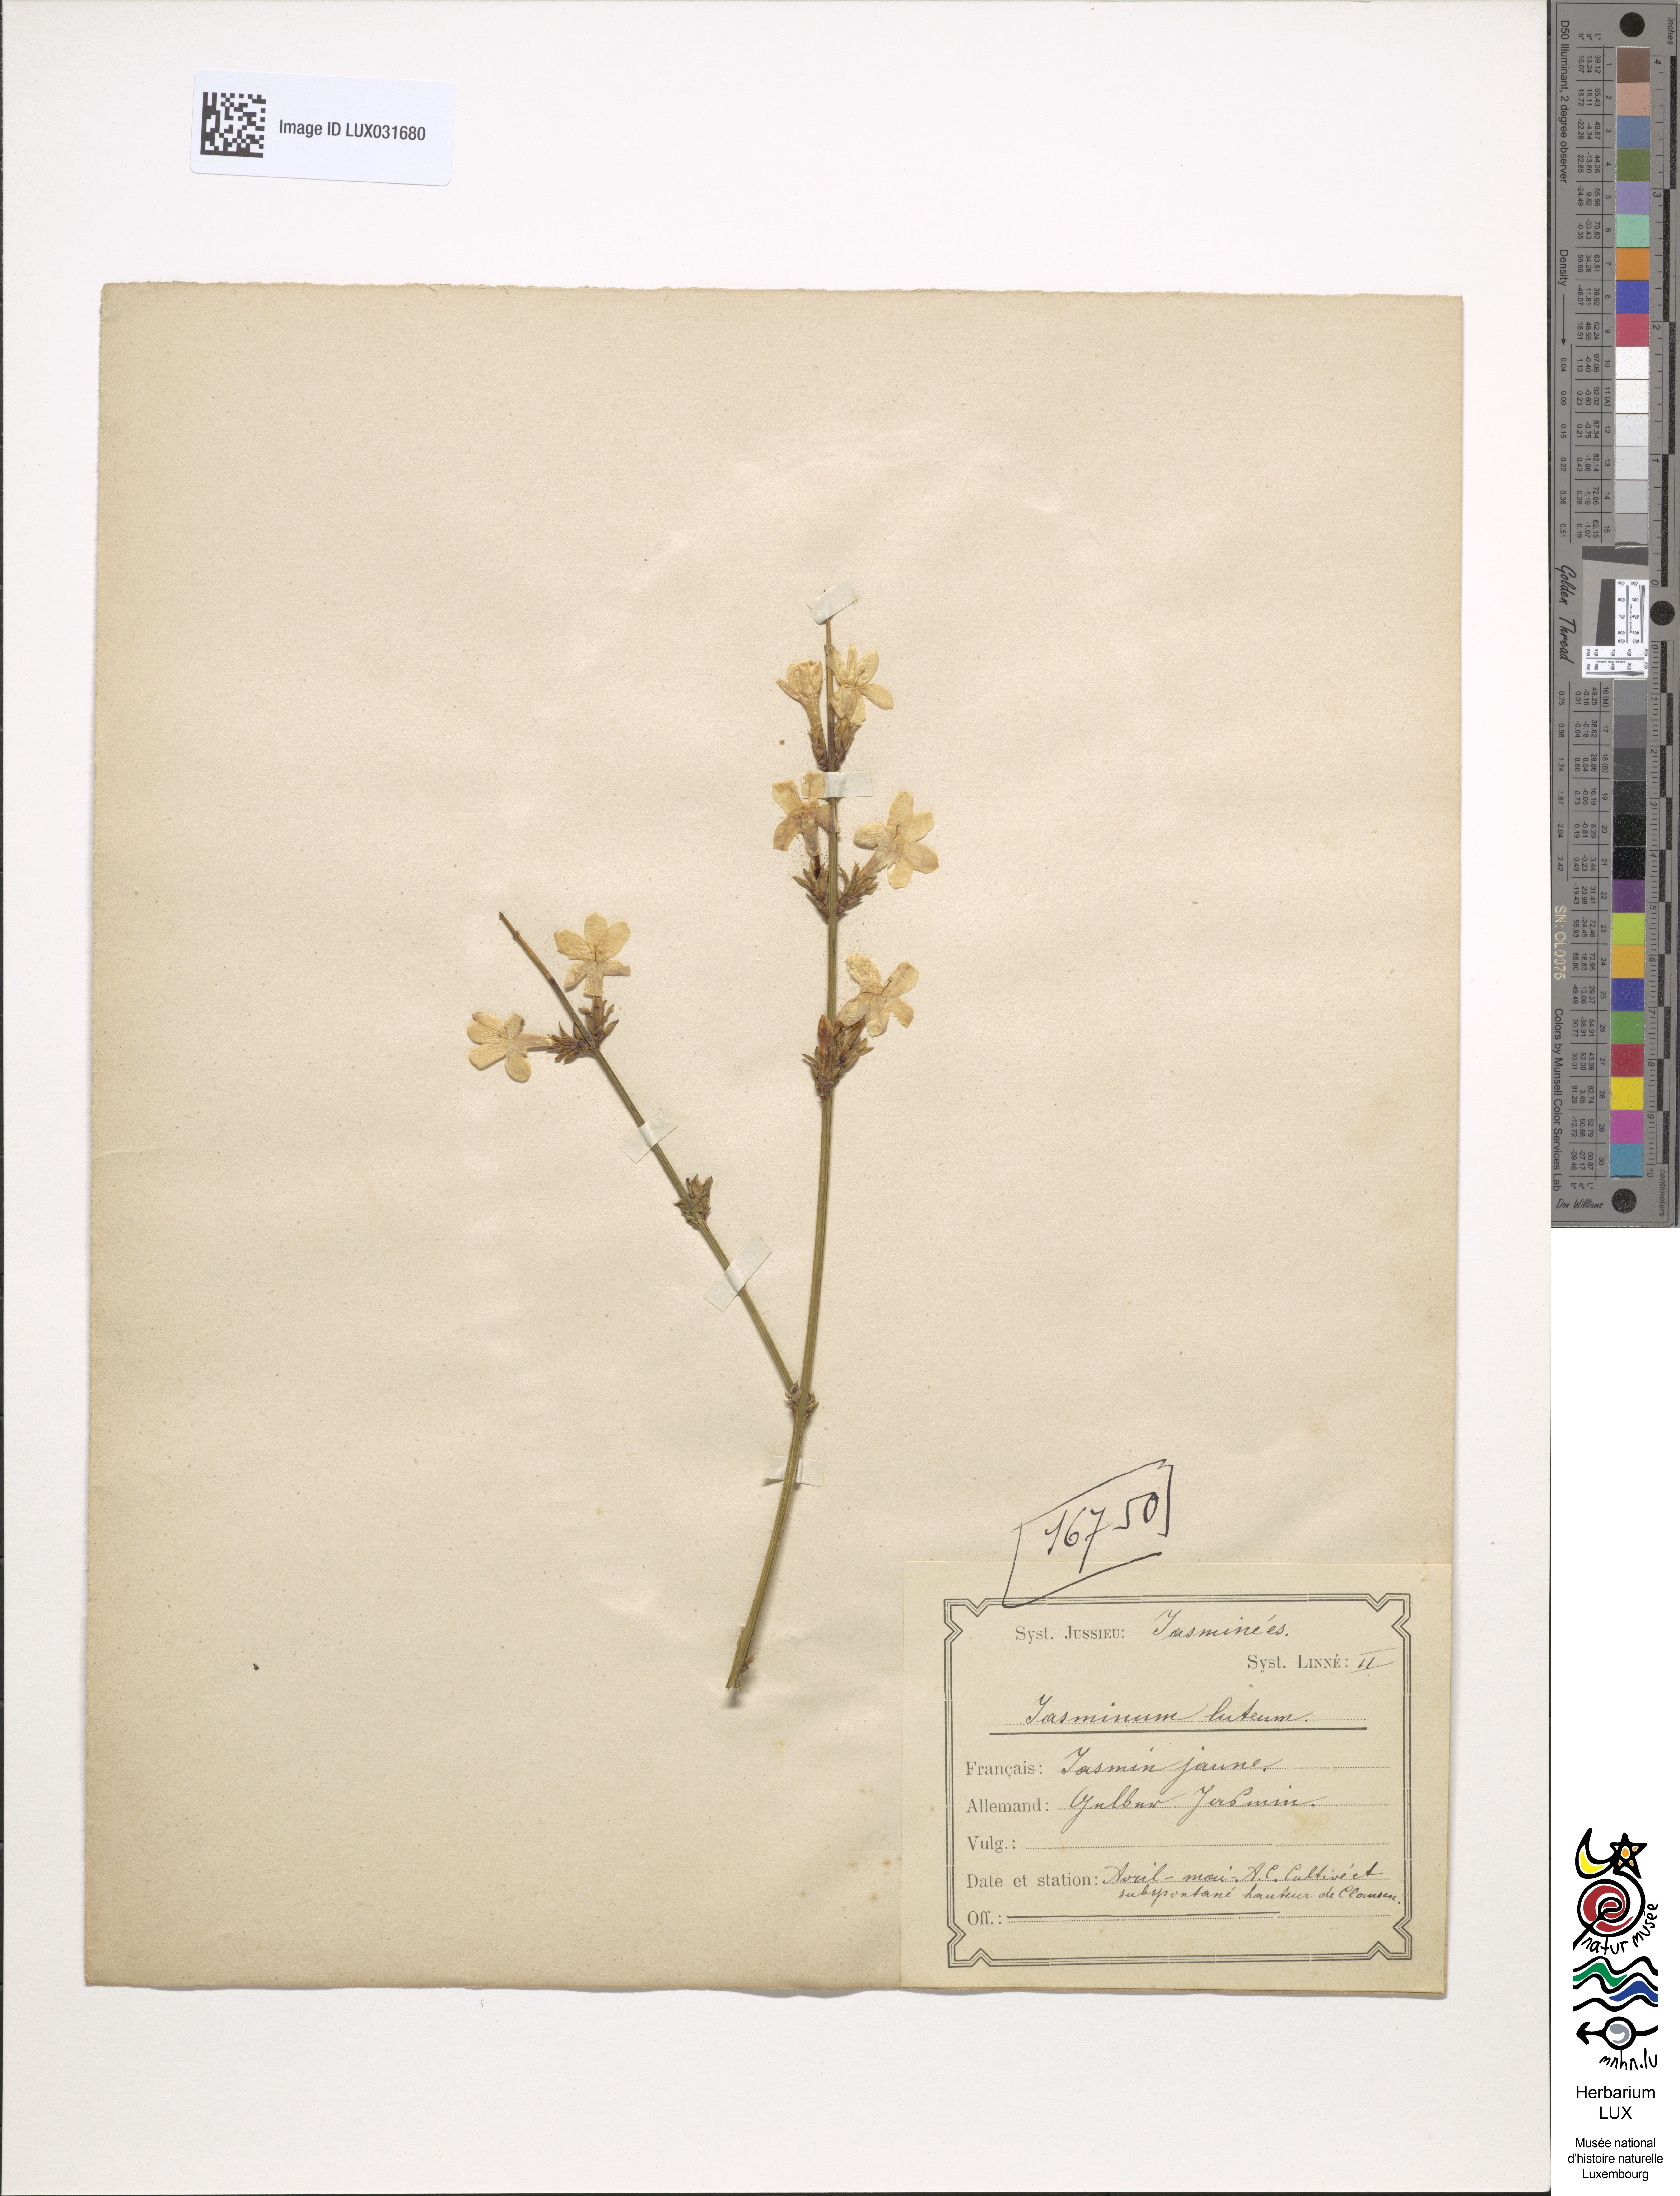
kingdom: Plantae
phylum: Tracheophyta
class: Magnoliopsida
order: Lamiales
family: Oleaceae
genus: Chrysojasminum
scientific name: Chrysojasminum fruticans
